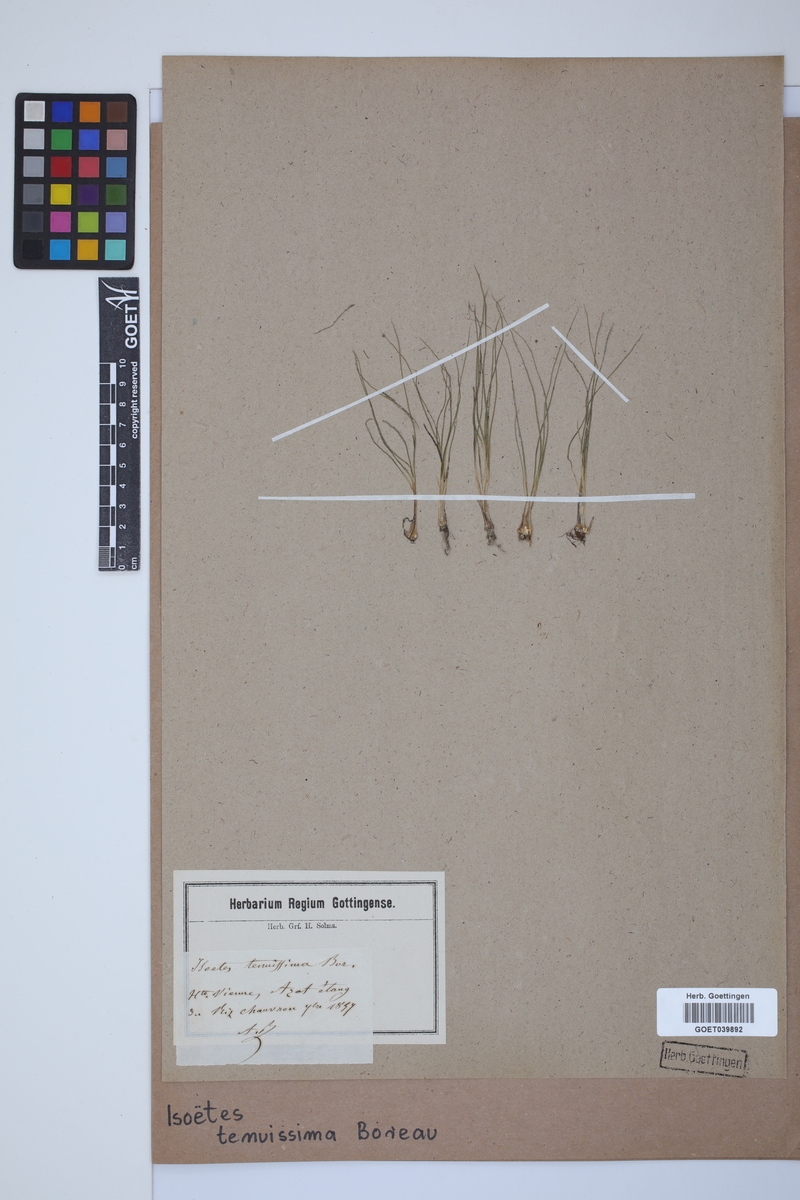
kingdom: Plantae
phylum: Tracheophyta
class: Lycopodiopsida
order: Isoetales
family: Isoetaceae
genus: Isoetes
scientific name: Isoetes muelleri
